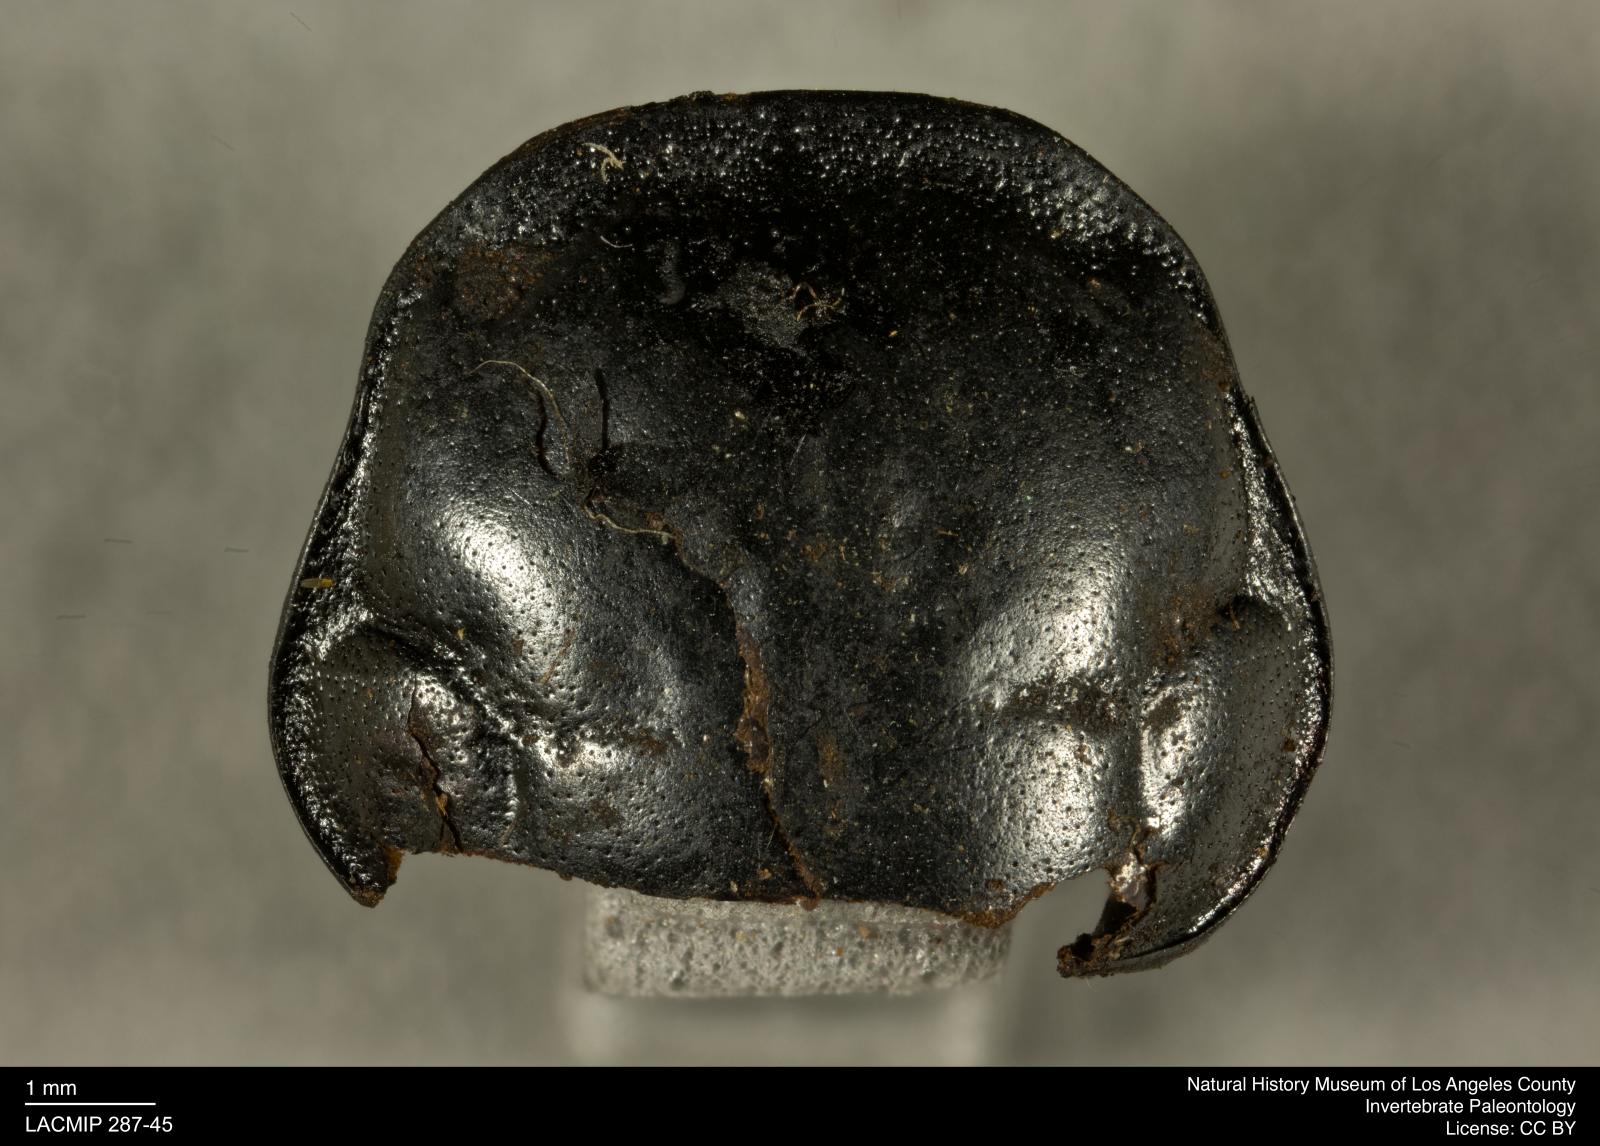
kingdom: Animalia
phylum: Arthropoda
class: Insecta
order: Coleoptera
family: Staphylinidae
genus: Nicrophorus
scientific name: Nicrophorus marginatus
